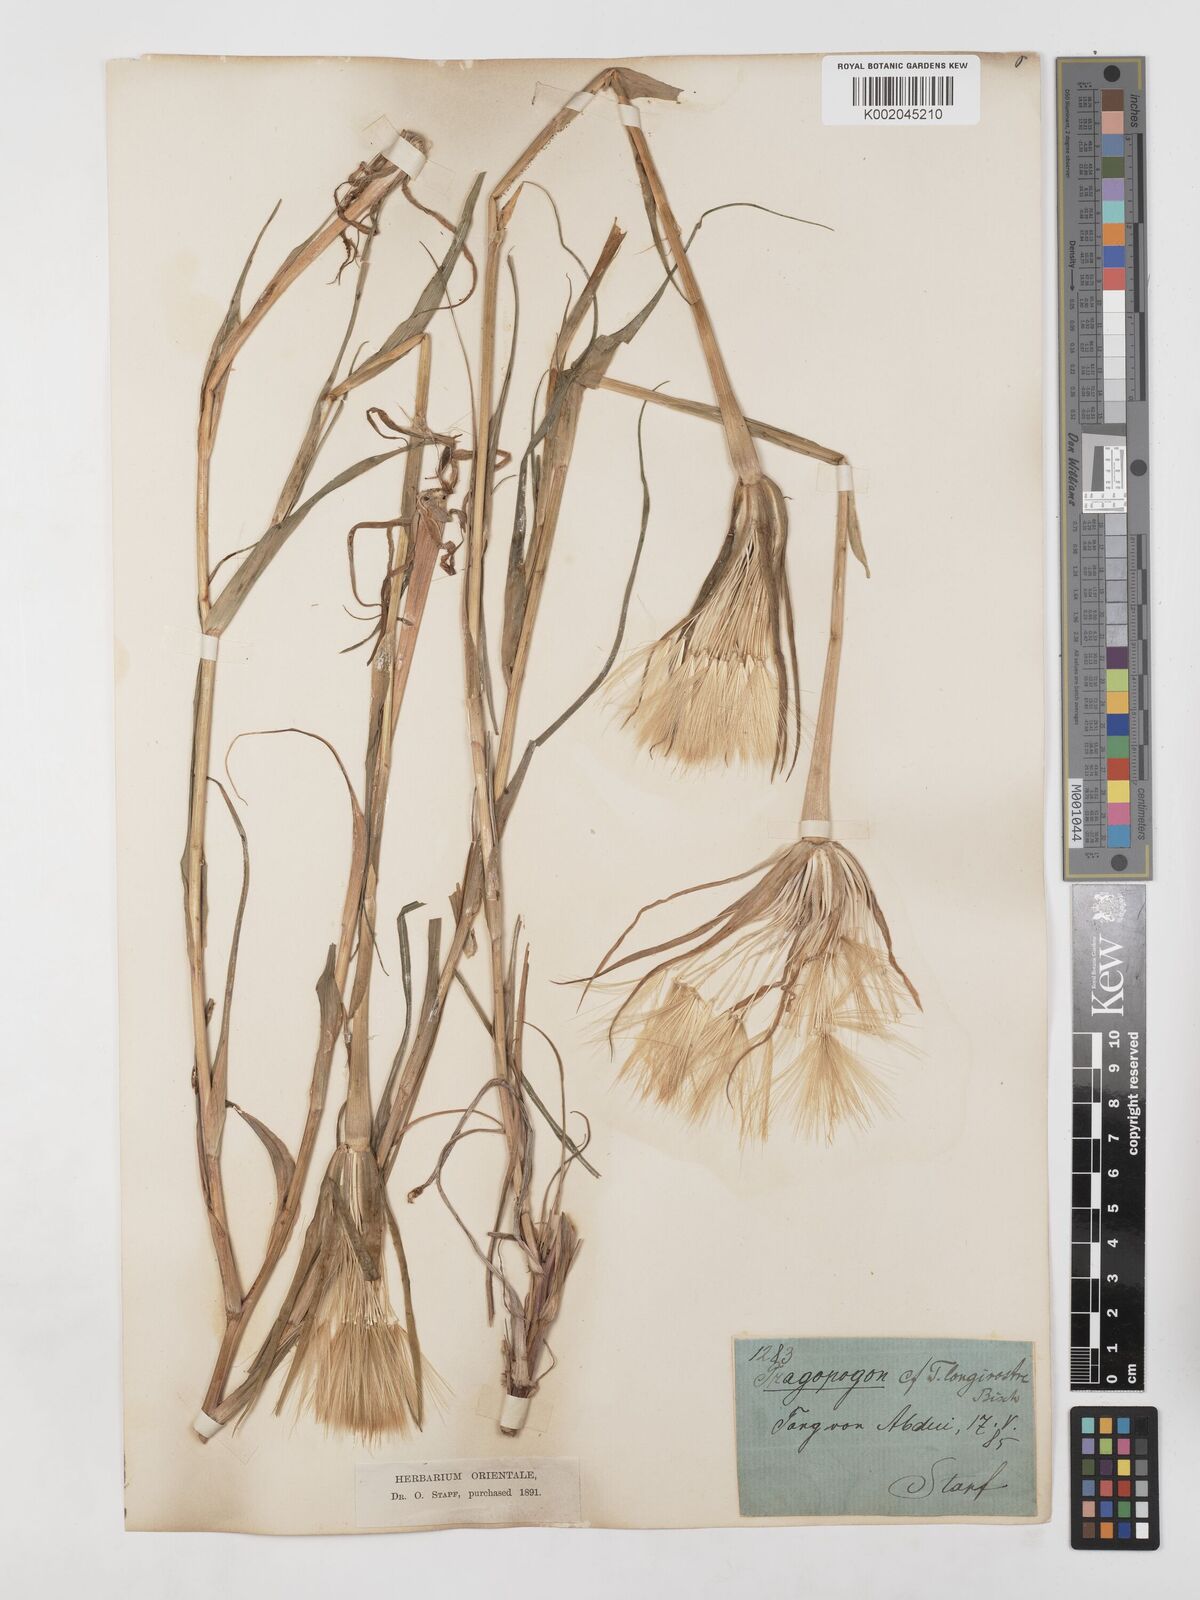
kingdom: Plantae
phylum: Tracheophyta
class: Magnoliopsida
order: Asterales
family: Asteraceae
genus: Tragopogon
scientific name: Tragopogon coelesyriacus
